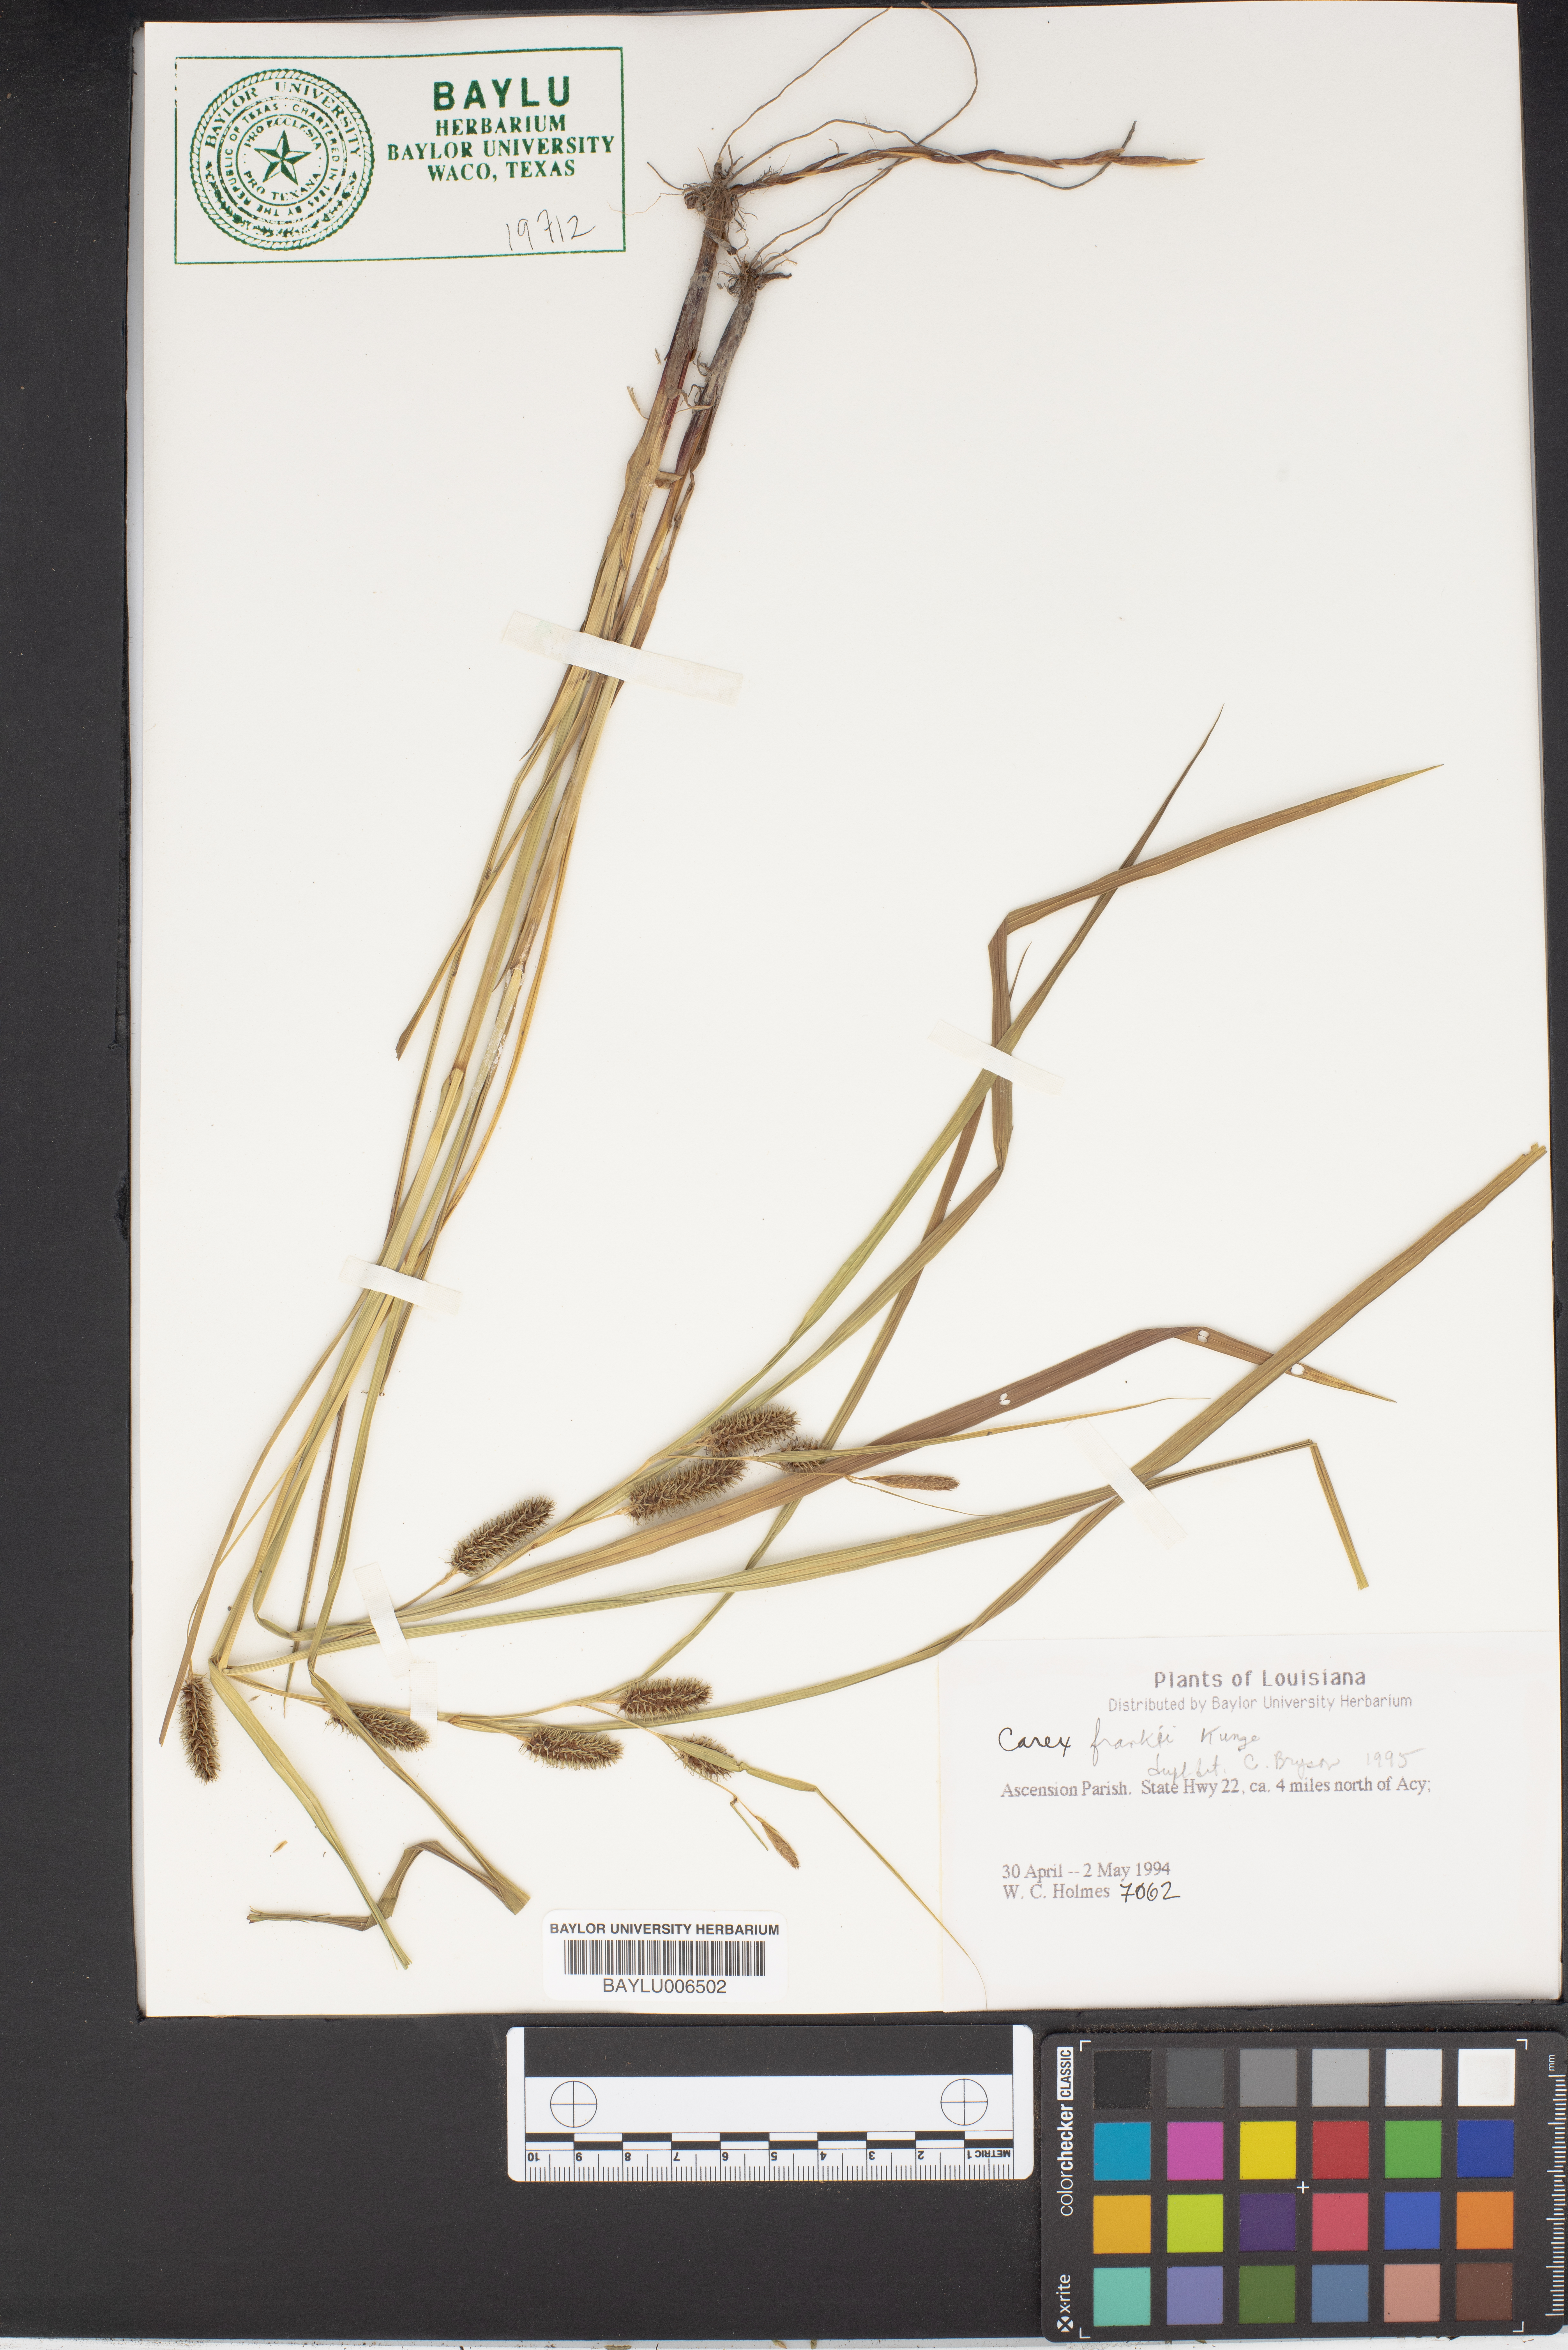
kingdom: Plantae
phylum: Tracheophyta
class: Liliopsida
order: Poales
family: Cyperaceae
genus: Carex
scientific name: Carex frankii
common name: Frank's sedge
